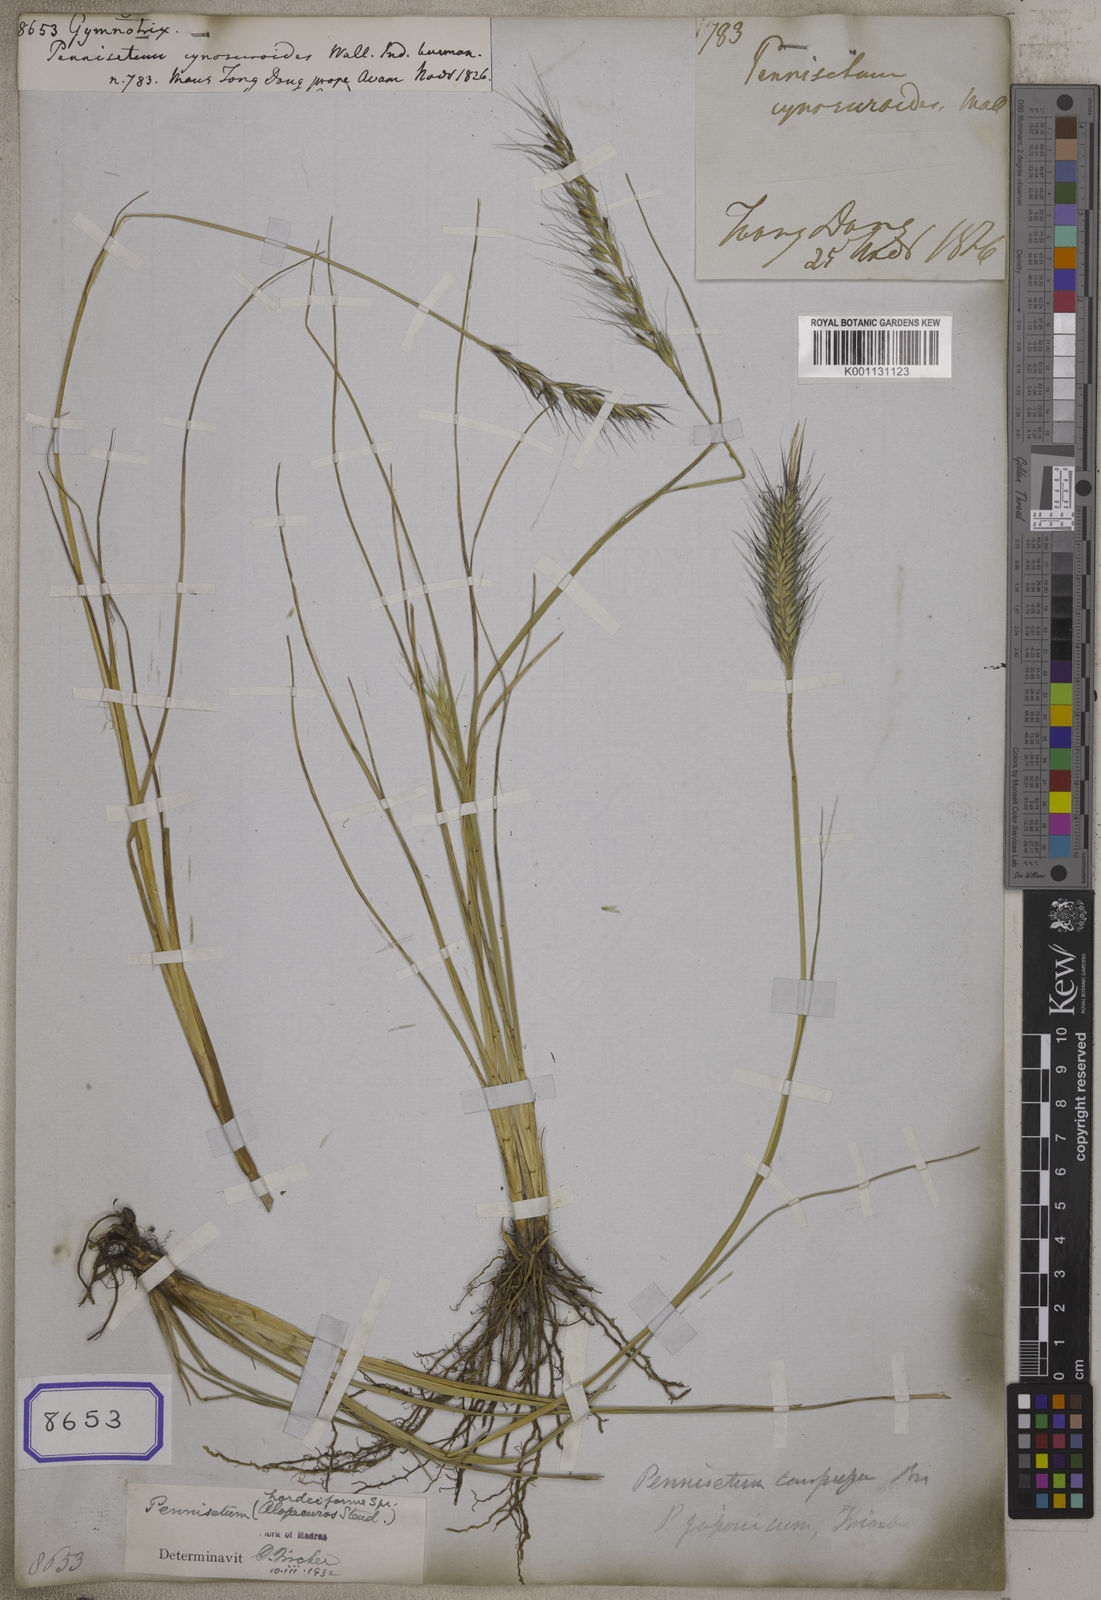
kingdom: Plantae
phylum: Tracheophyta
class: Liliopsida
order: Poales
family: Poaceae
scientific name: Poaceae
